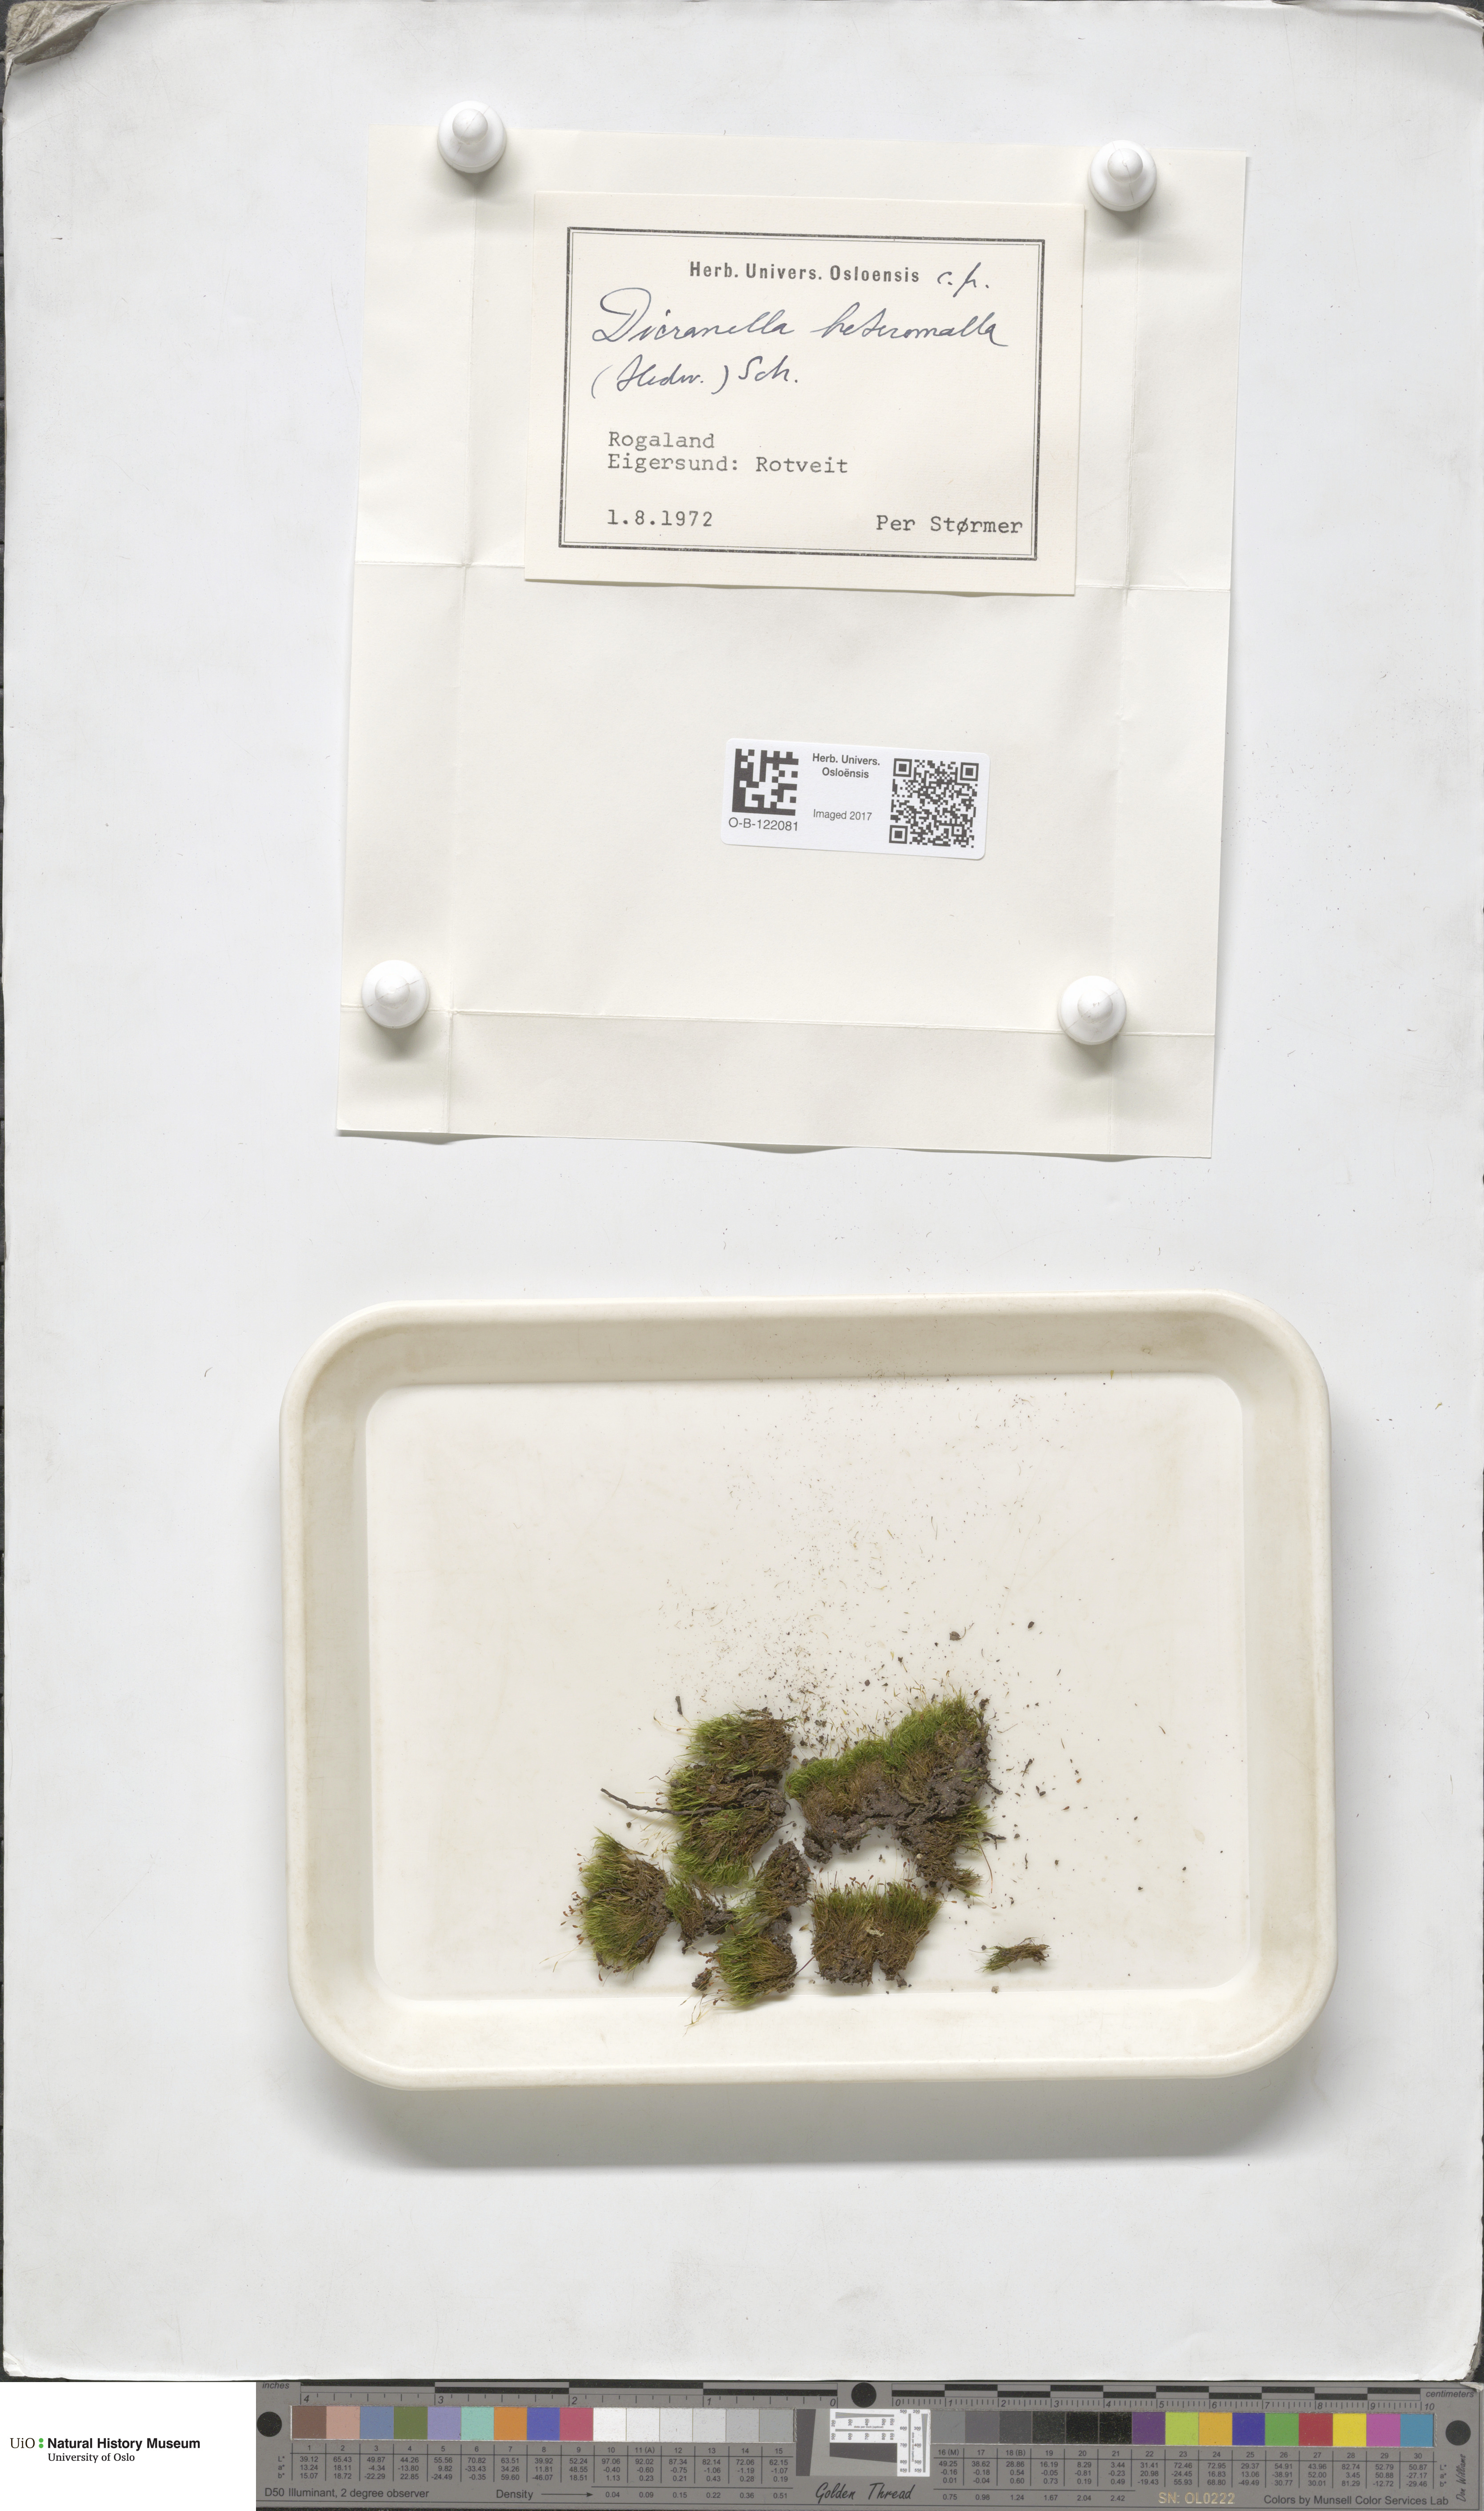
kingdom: Plantae
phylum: Bryophyta
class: Bryopsida
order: Dicranales
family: Dicranellaceae
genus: Dicranella
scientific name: Dicranella heteromalla
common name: Silky forklet moss
